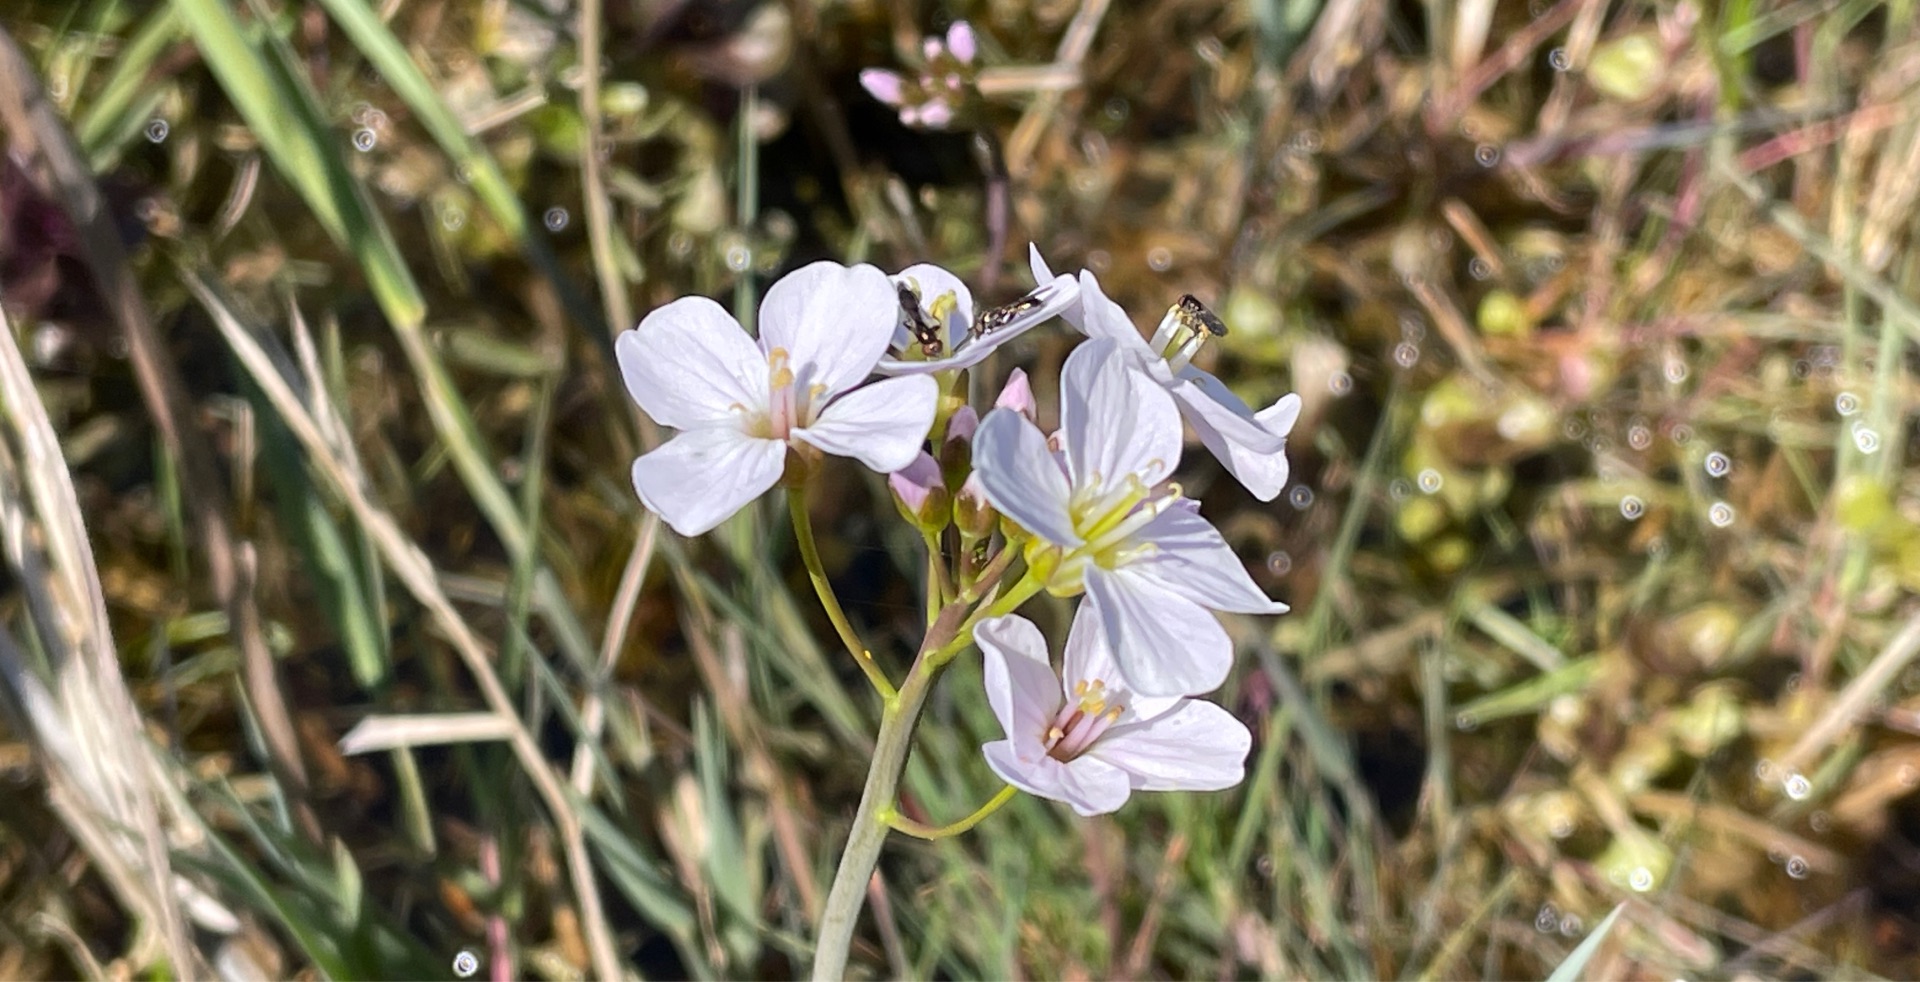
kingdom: Plantae
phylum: Tracheophyta
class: Magnoliopsida
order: Brassicales
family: Brassicaceae
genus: Cardamine
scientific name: Cardamine pratensis
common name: Engkarse
